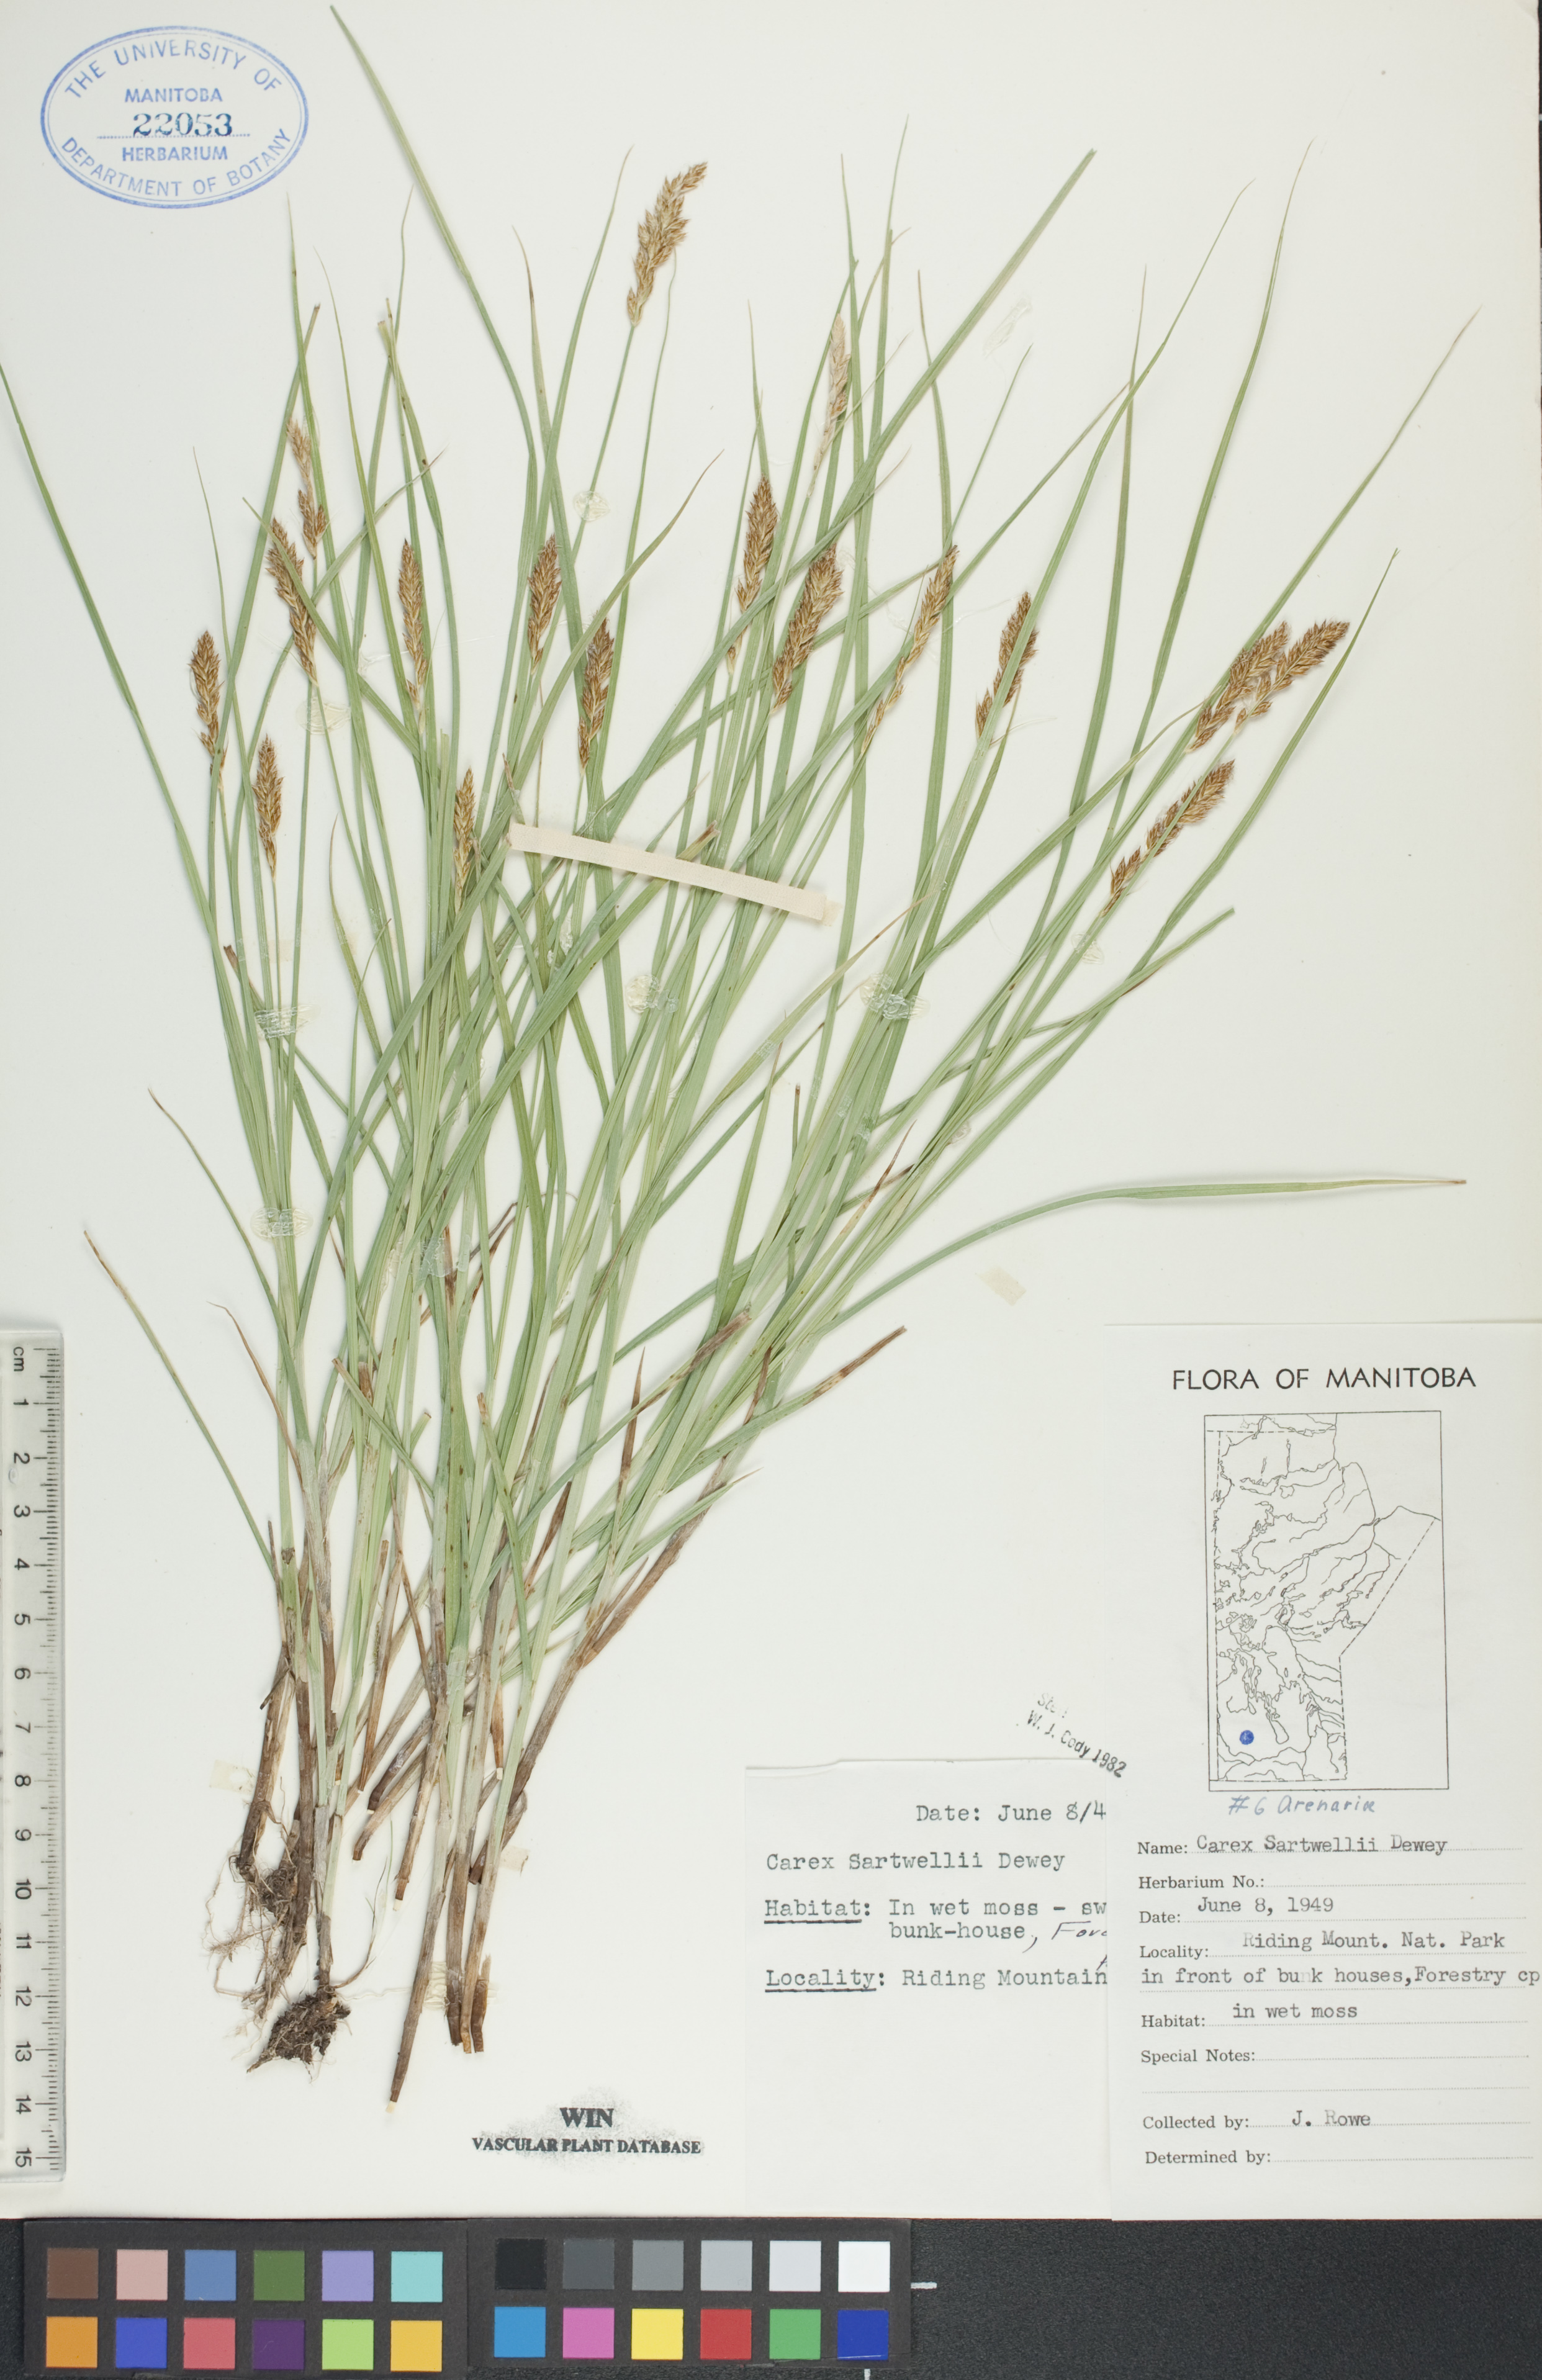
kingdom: Plantae
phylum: Tracheophyta
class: Liliopsida
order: Poales
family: Cyperaceae
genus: Carex
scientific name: Carex sartwellii
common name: Sartwell's sedge
